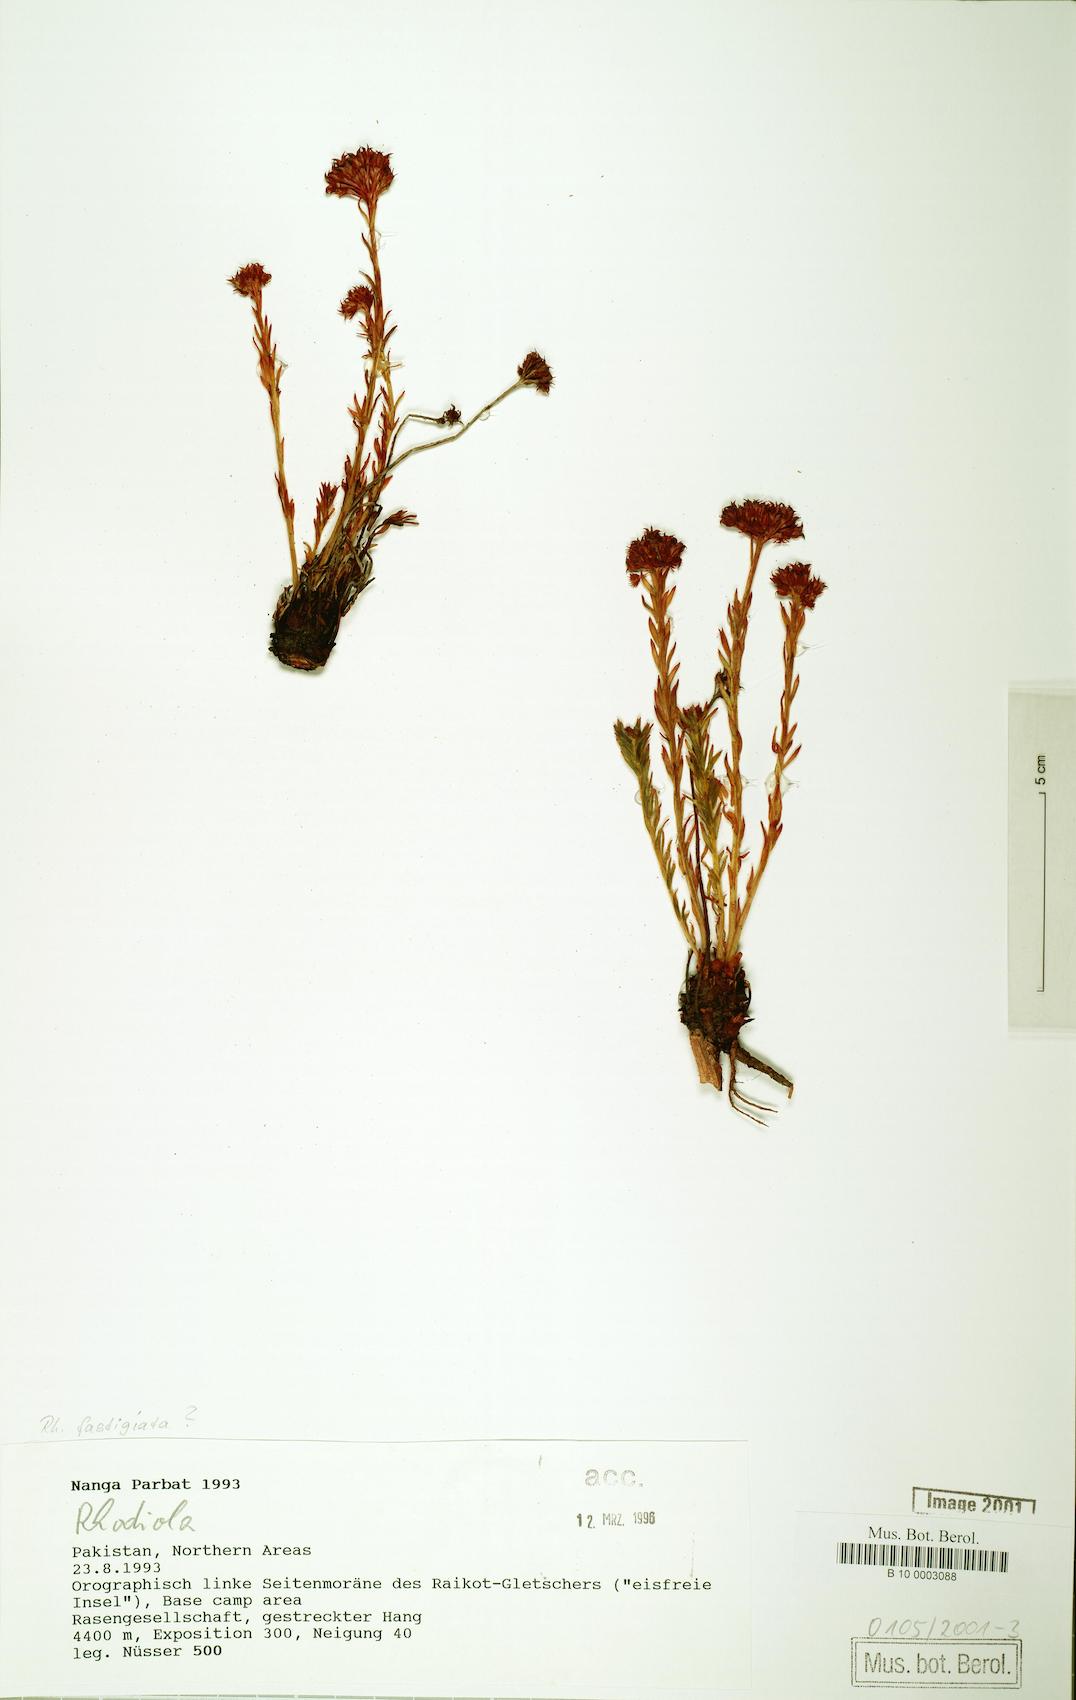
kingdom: Plantae
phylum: Tracheophyta
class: Magnoliopsida
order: Saxifragales
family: Crassulaceae
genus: Rhodiola
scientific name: Rhodiola fastigiata
